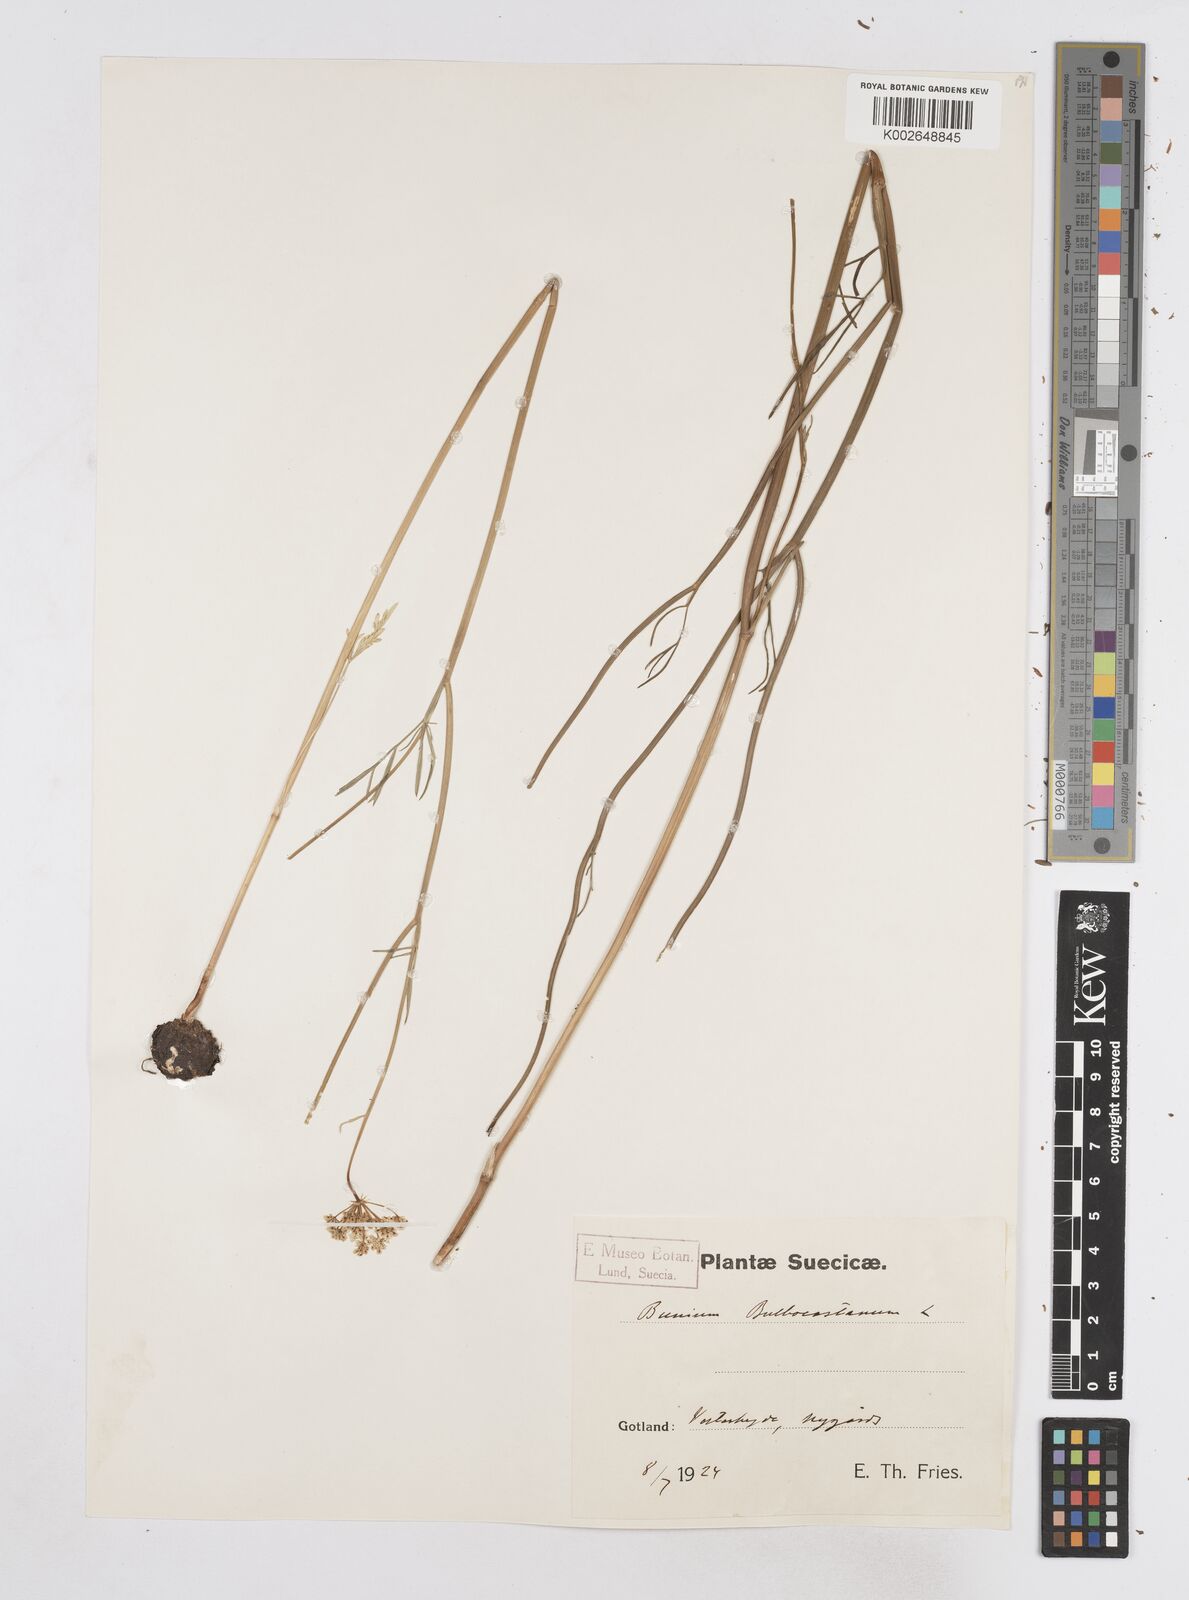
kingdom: Plantae
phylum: Tracheophyta
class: Magnoliopsida
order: Apiales
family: Apiaceae
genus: Bunium
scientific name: Bunium bulbocastanum
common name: Great pignut
